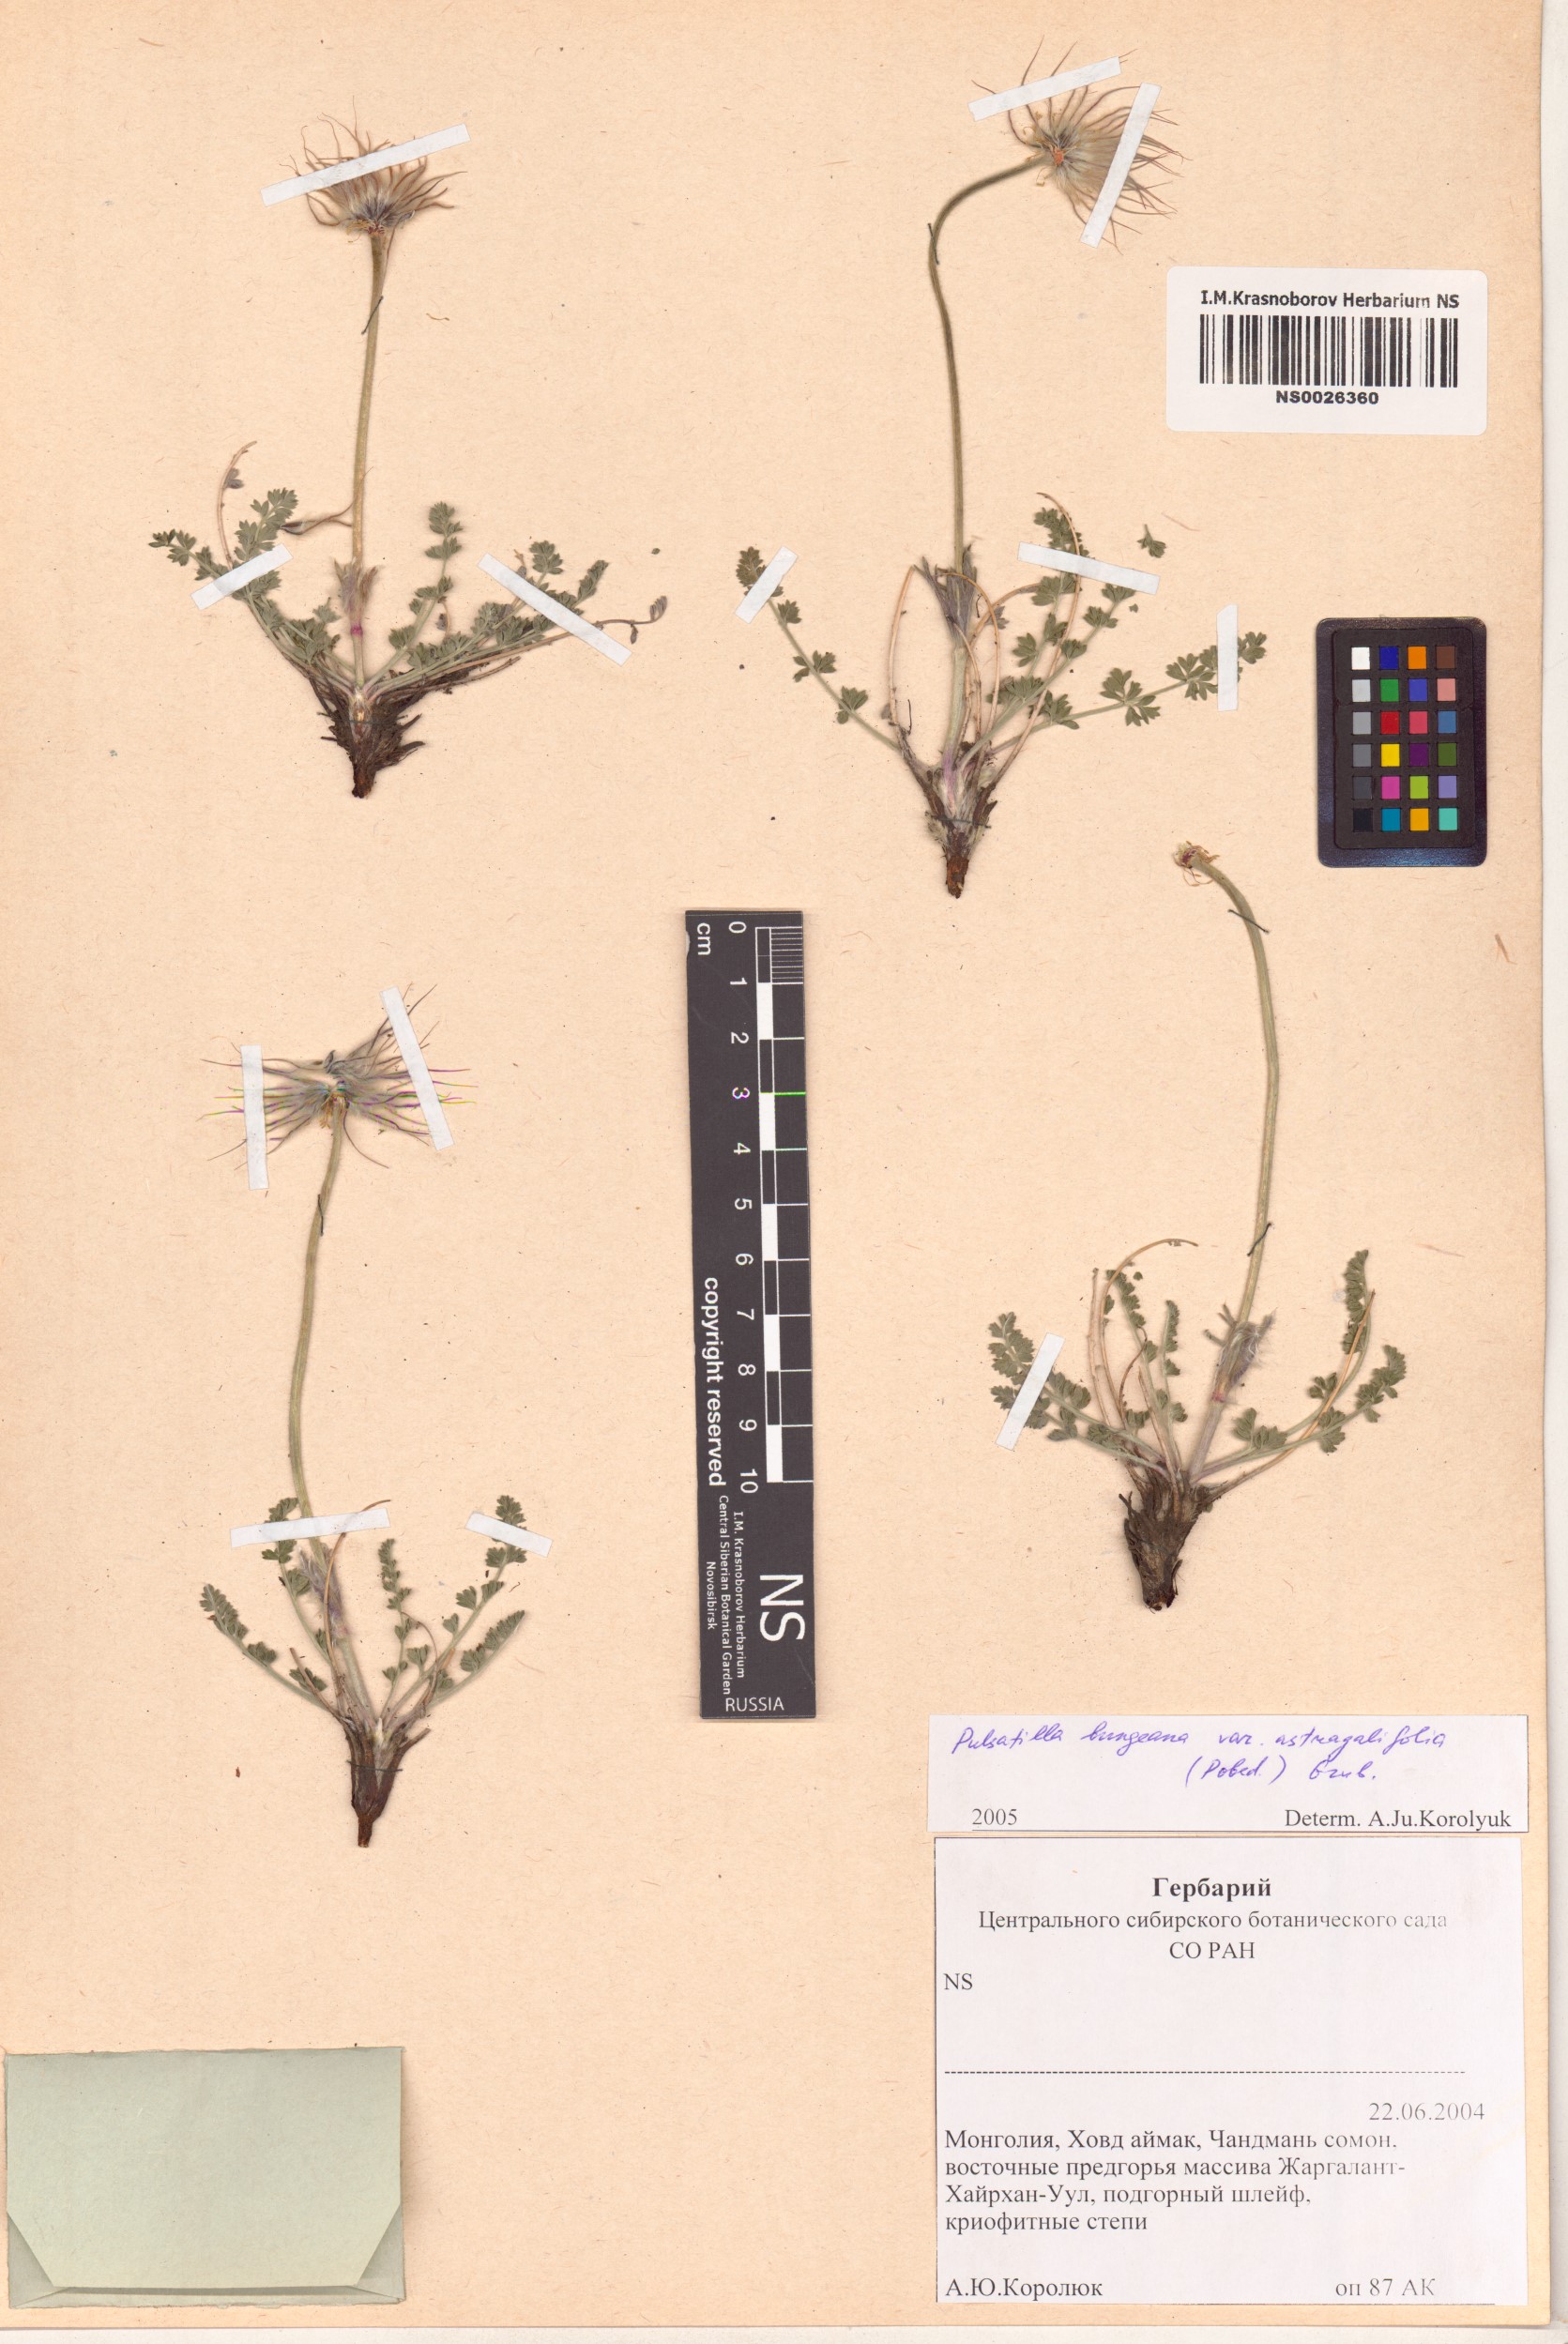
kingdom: Plantae
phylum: Tracheophyta
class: Magnoliopsida
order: Ranunculales
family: Ranunculaceae
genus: Pulsatilla
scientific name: Pulsatilla bungeana
